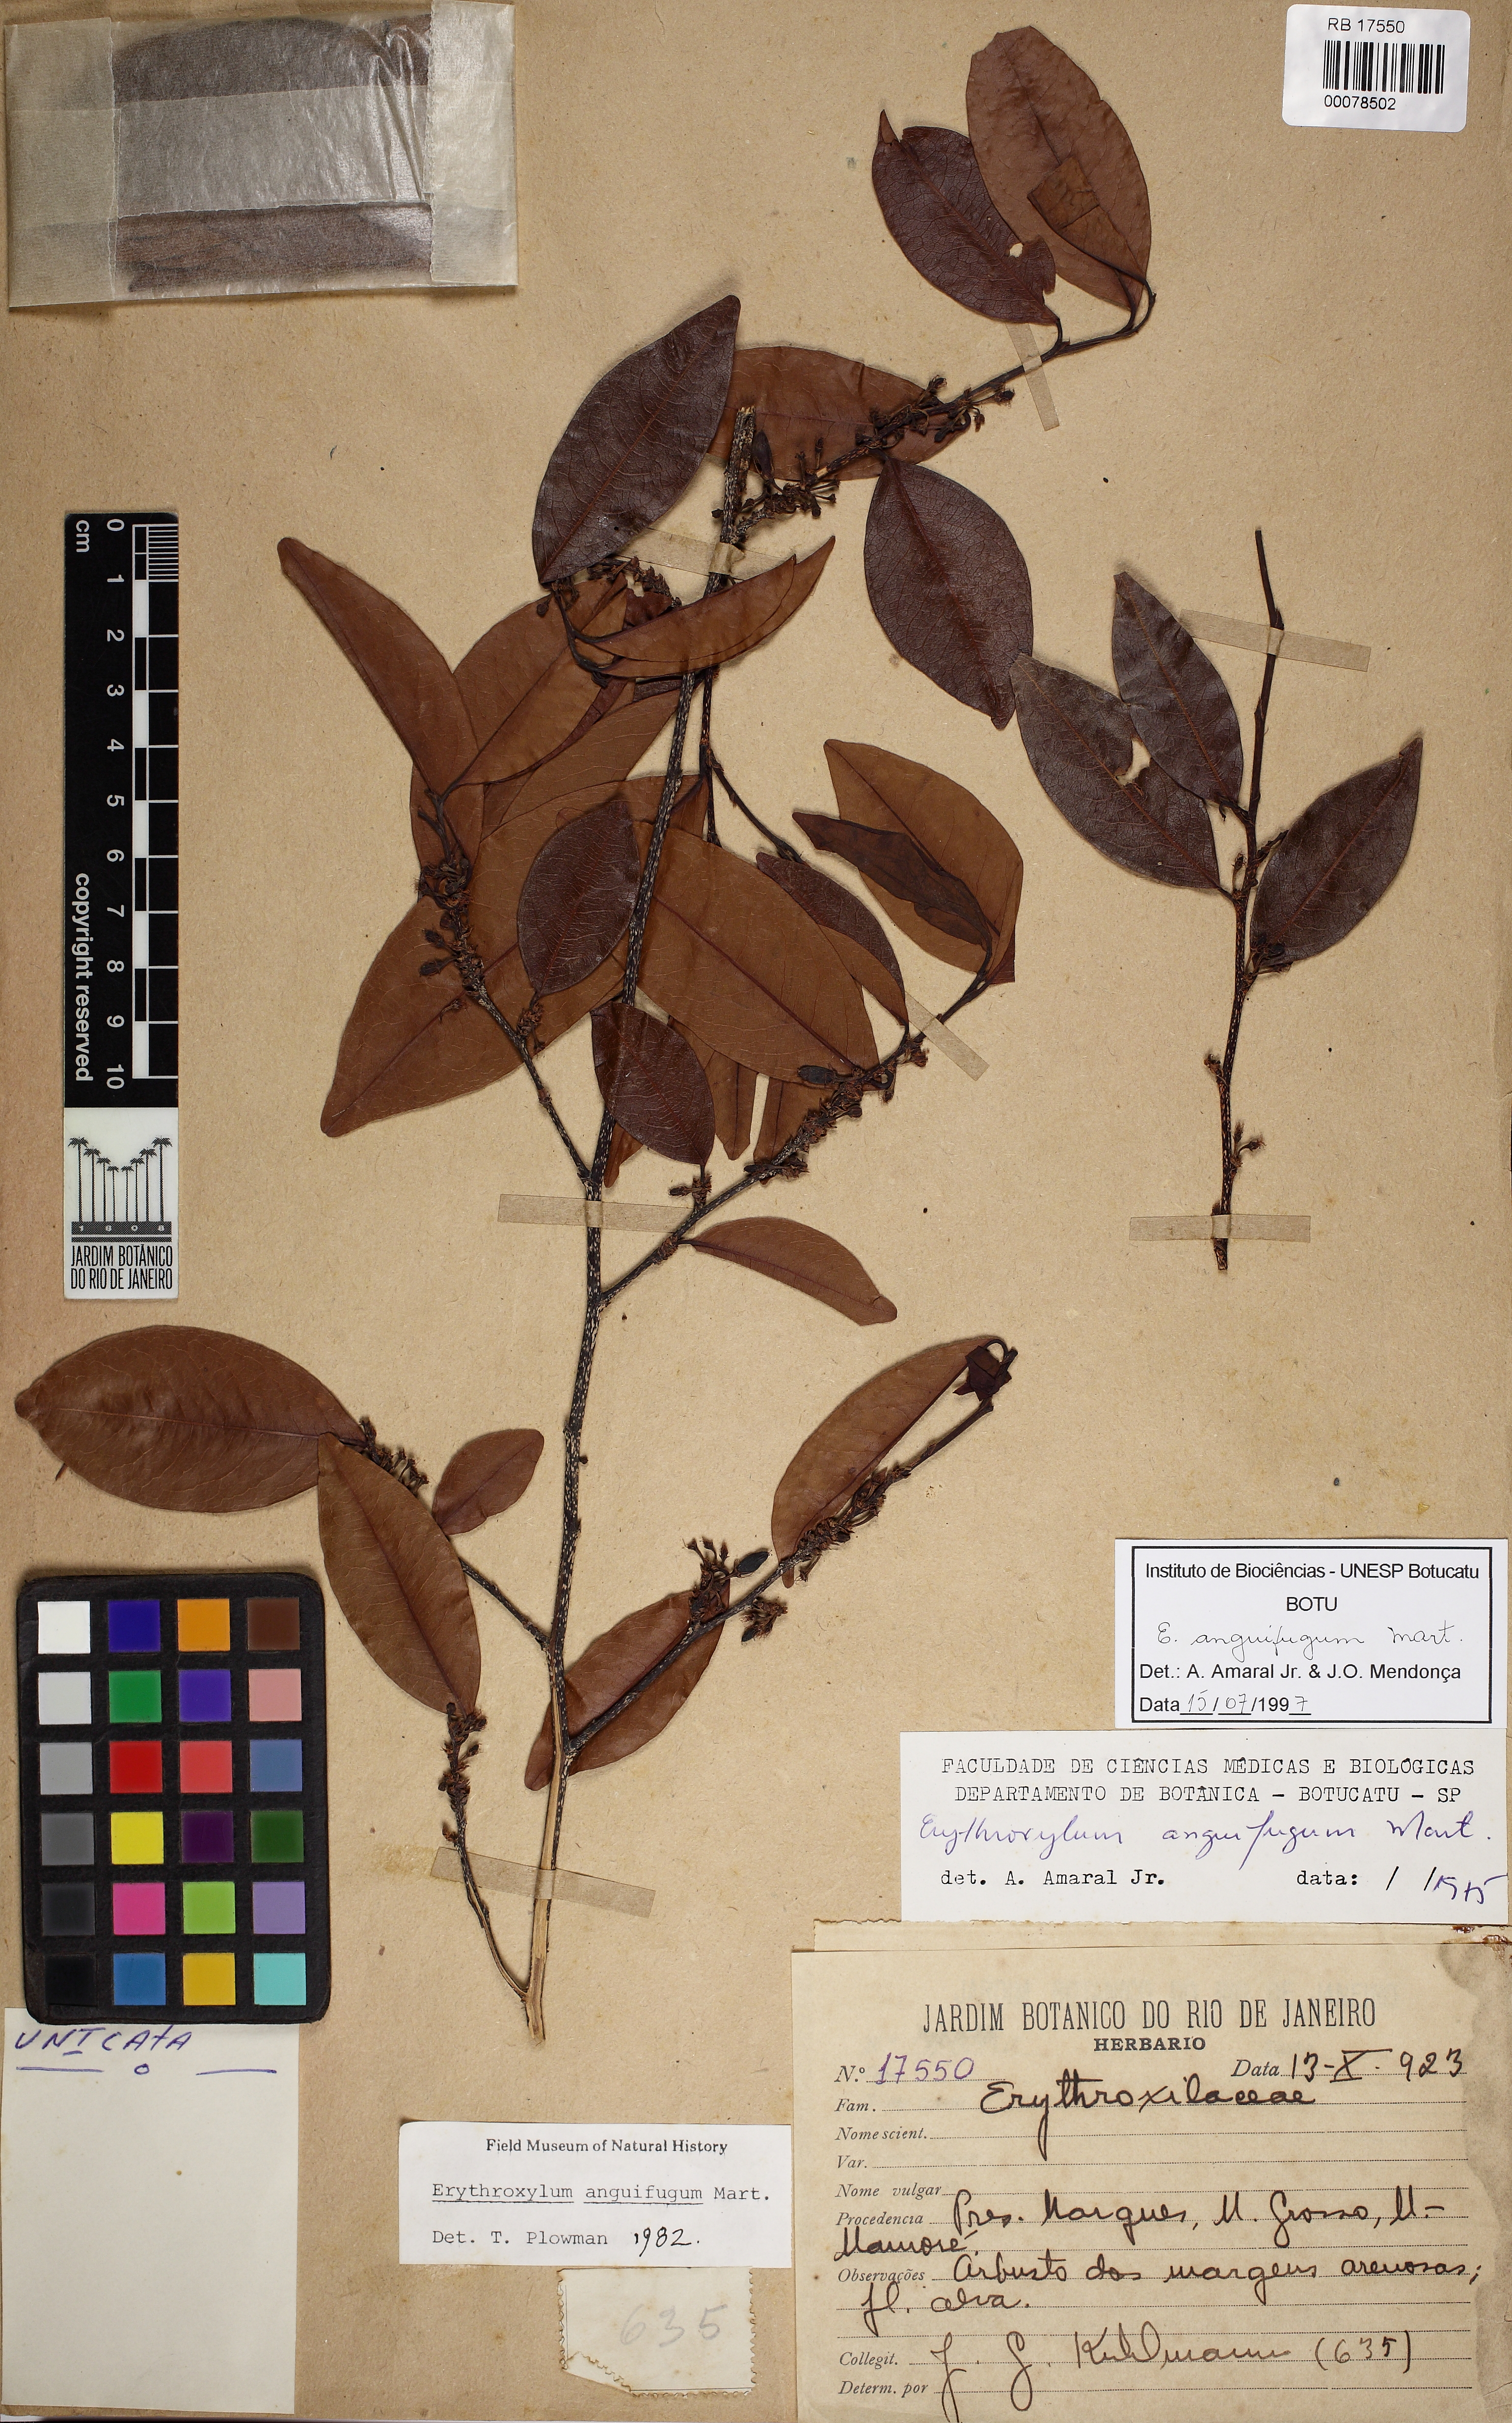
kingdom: Plantae
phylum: Tracheophyta
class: Magnoliopsida
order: Malpighiales
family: Erythroxylaceae
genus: Erythroxylum
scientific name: Erythroxylum anguifugum
